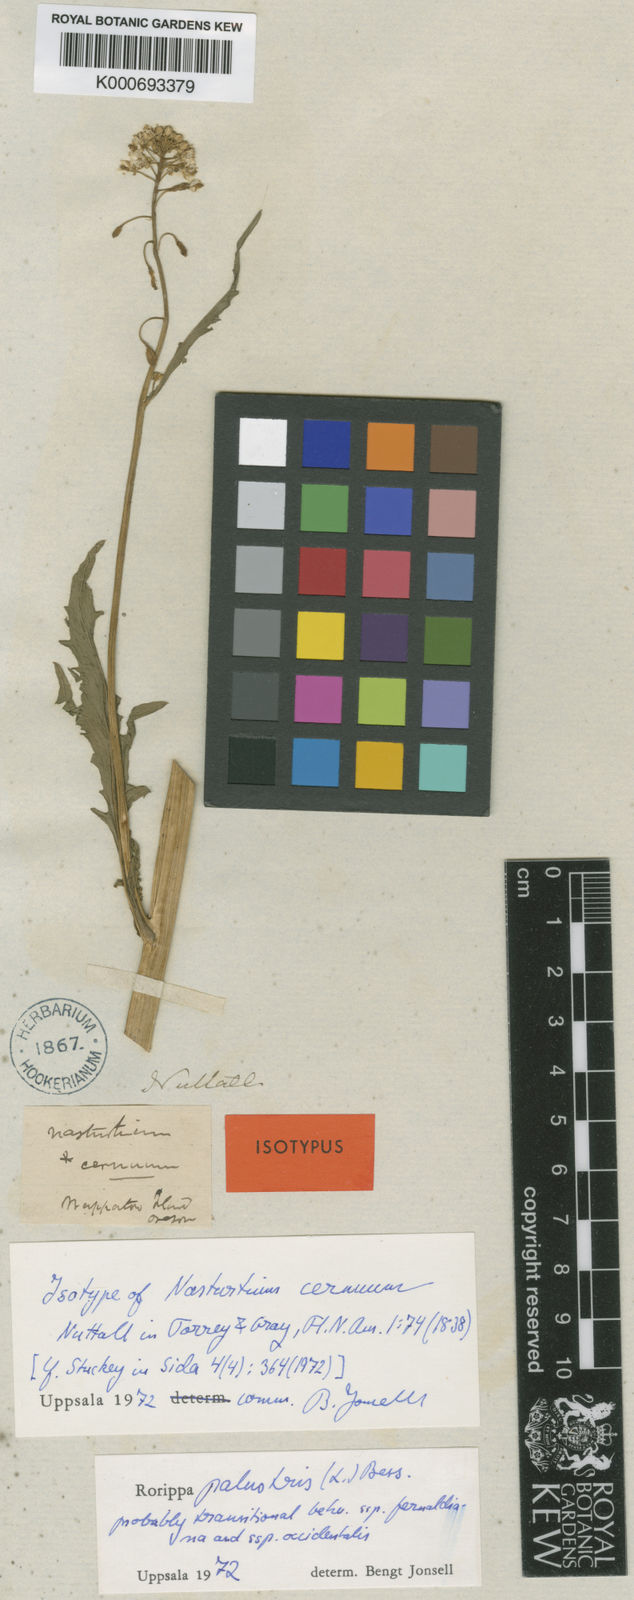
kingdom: Plantae
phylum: Tracheophyta
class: Magnoliopsida
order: Brassicales
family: Brassicaceae
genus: Rorippa
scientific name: Rorippa palustris
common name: Marsh yellow-cress
